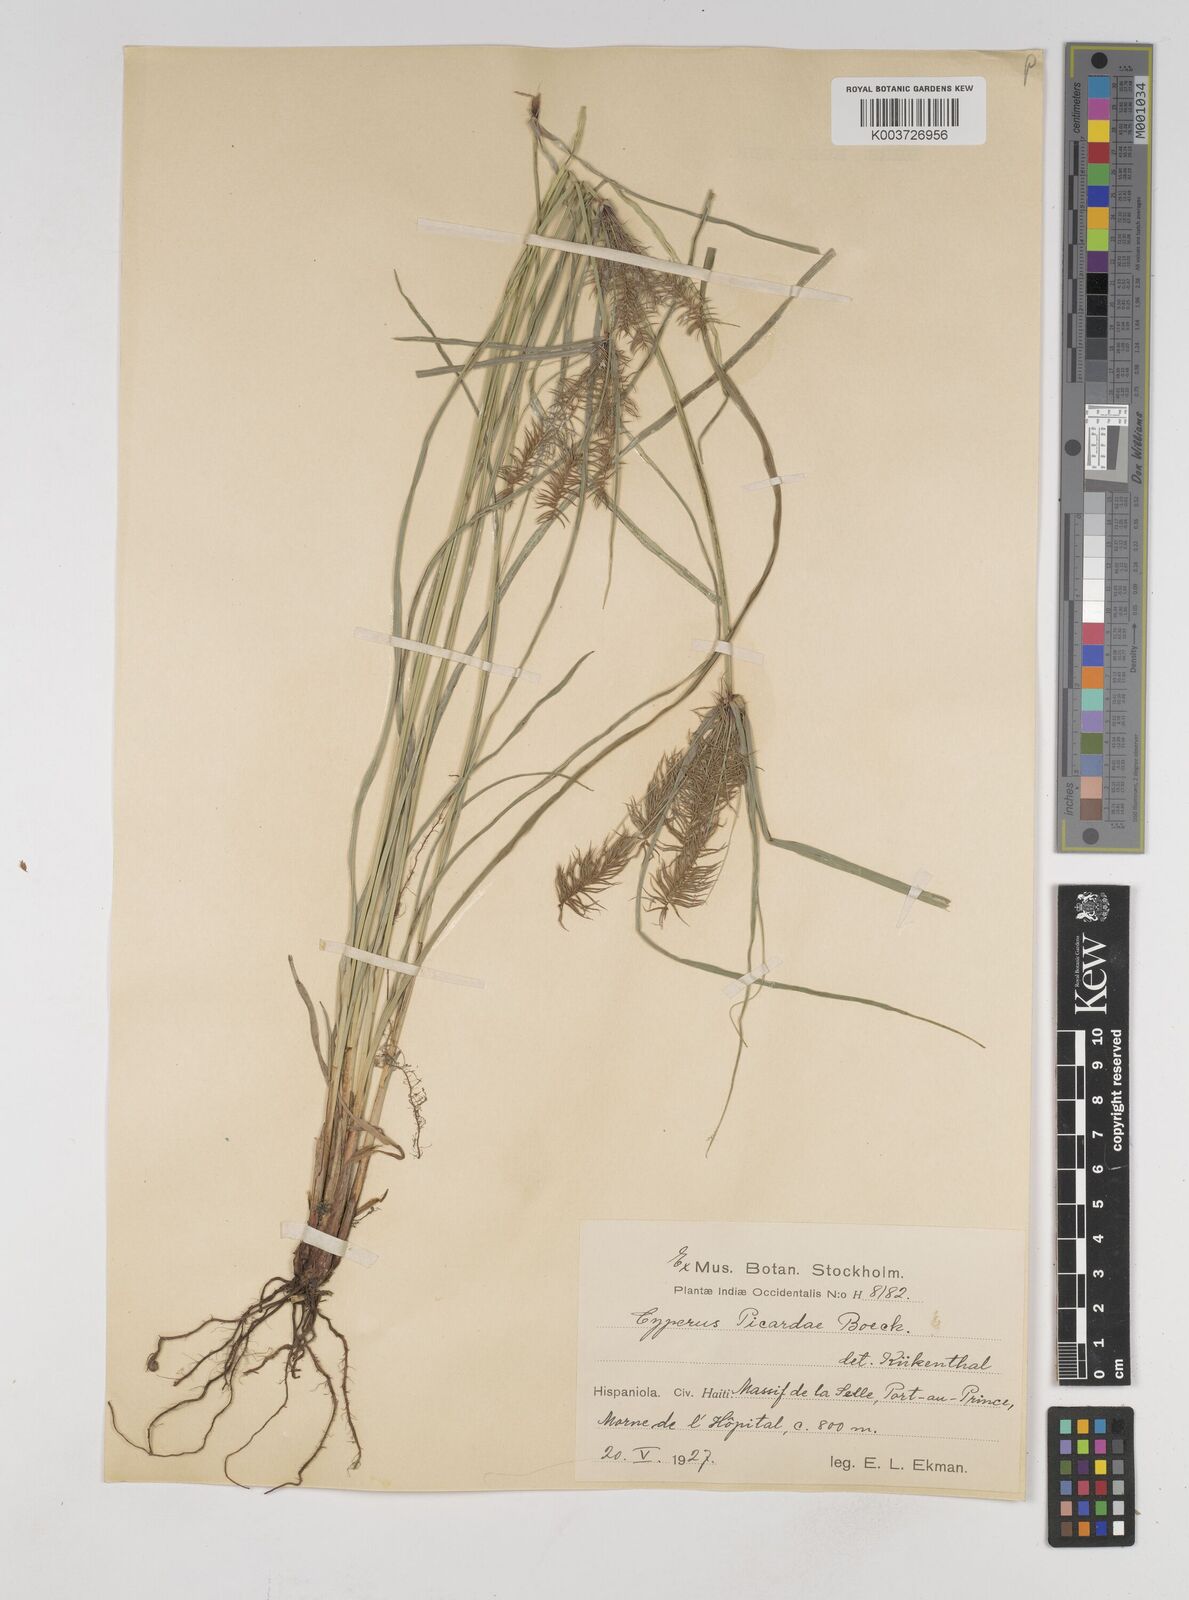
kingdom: Plantae
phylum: Tracheophyta
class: Liliopsida
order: Poales
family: Cyperaceae
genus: Cyperus
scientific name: Cyperus picardae
